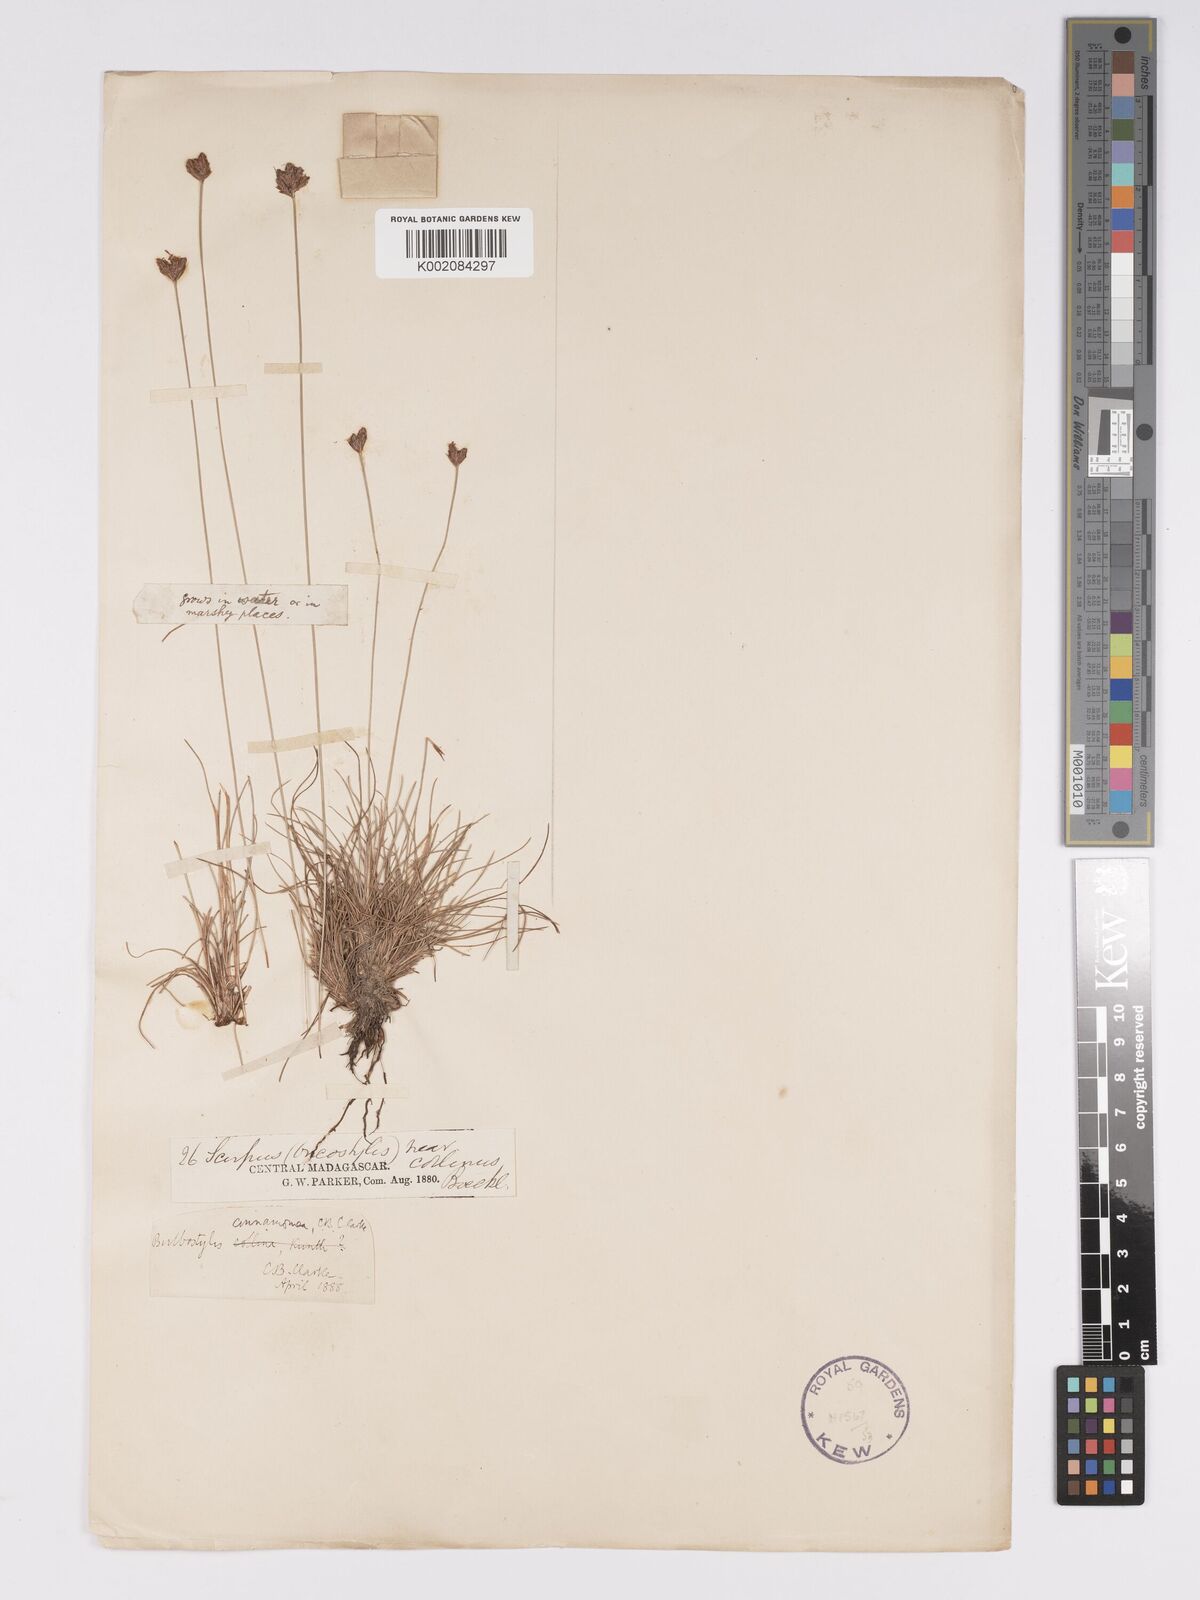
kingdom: Plantae
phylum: Tracheophyta
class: Liliopsida
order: Poales
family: Cyperaceae
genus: Bulbostylis
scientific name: Bulbostylis schoenoides
